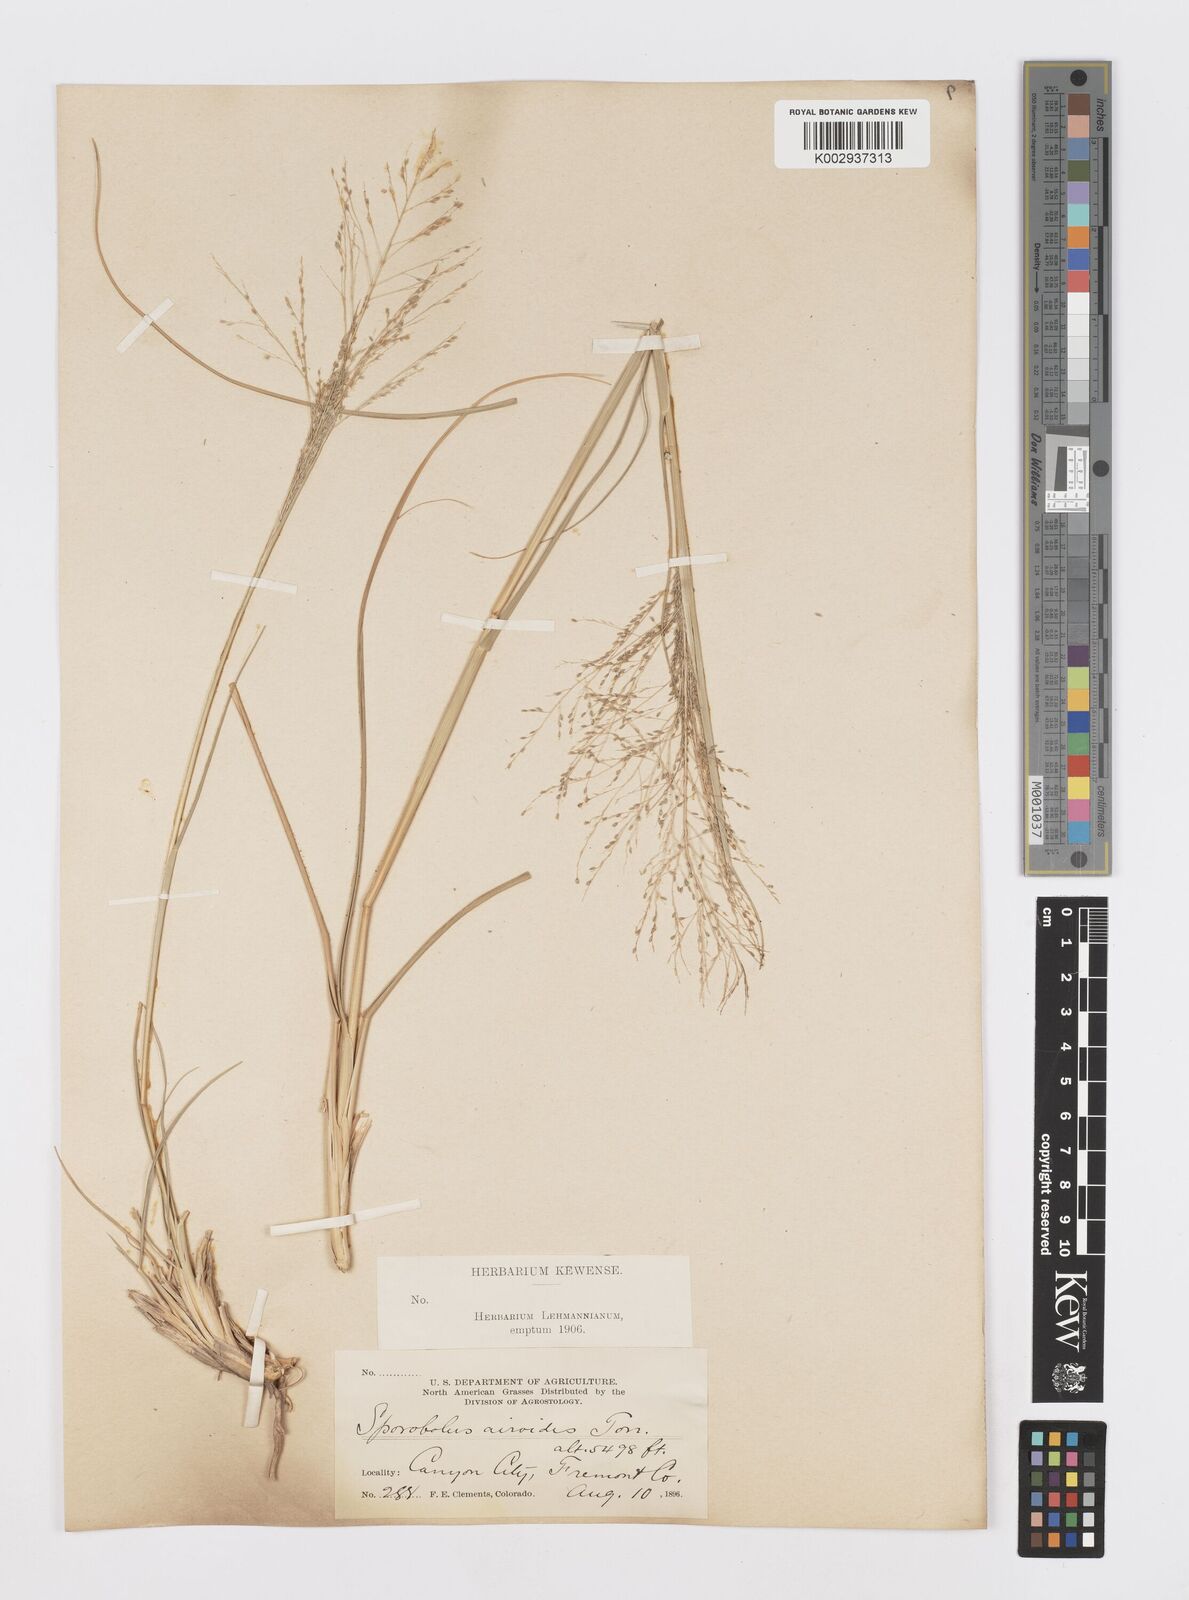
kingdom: Plantae
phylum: Tracheophyta
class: Liliopsida
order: Poales
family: Poaceae
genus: Sporobolus
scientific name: Sporobolus airoides
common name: Alkali sacaton
